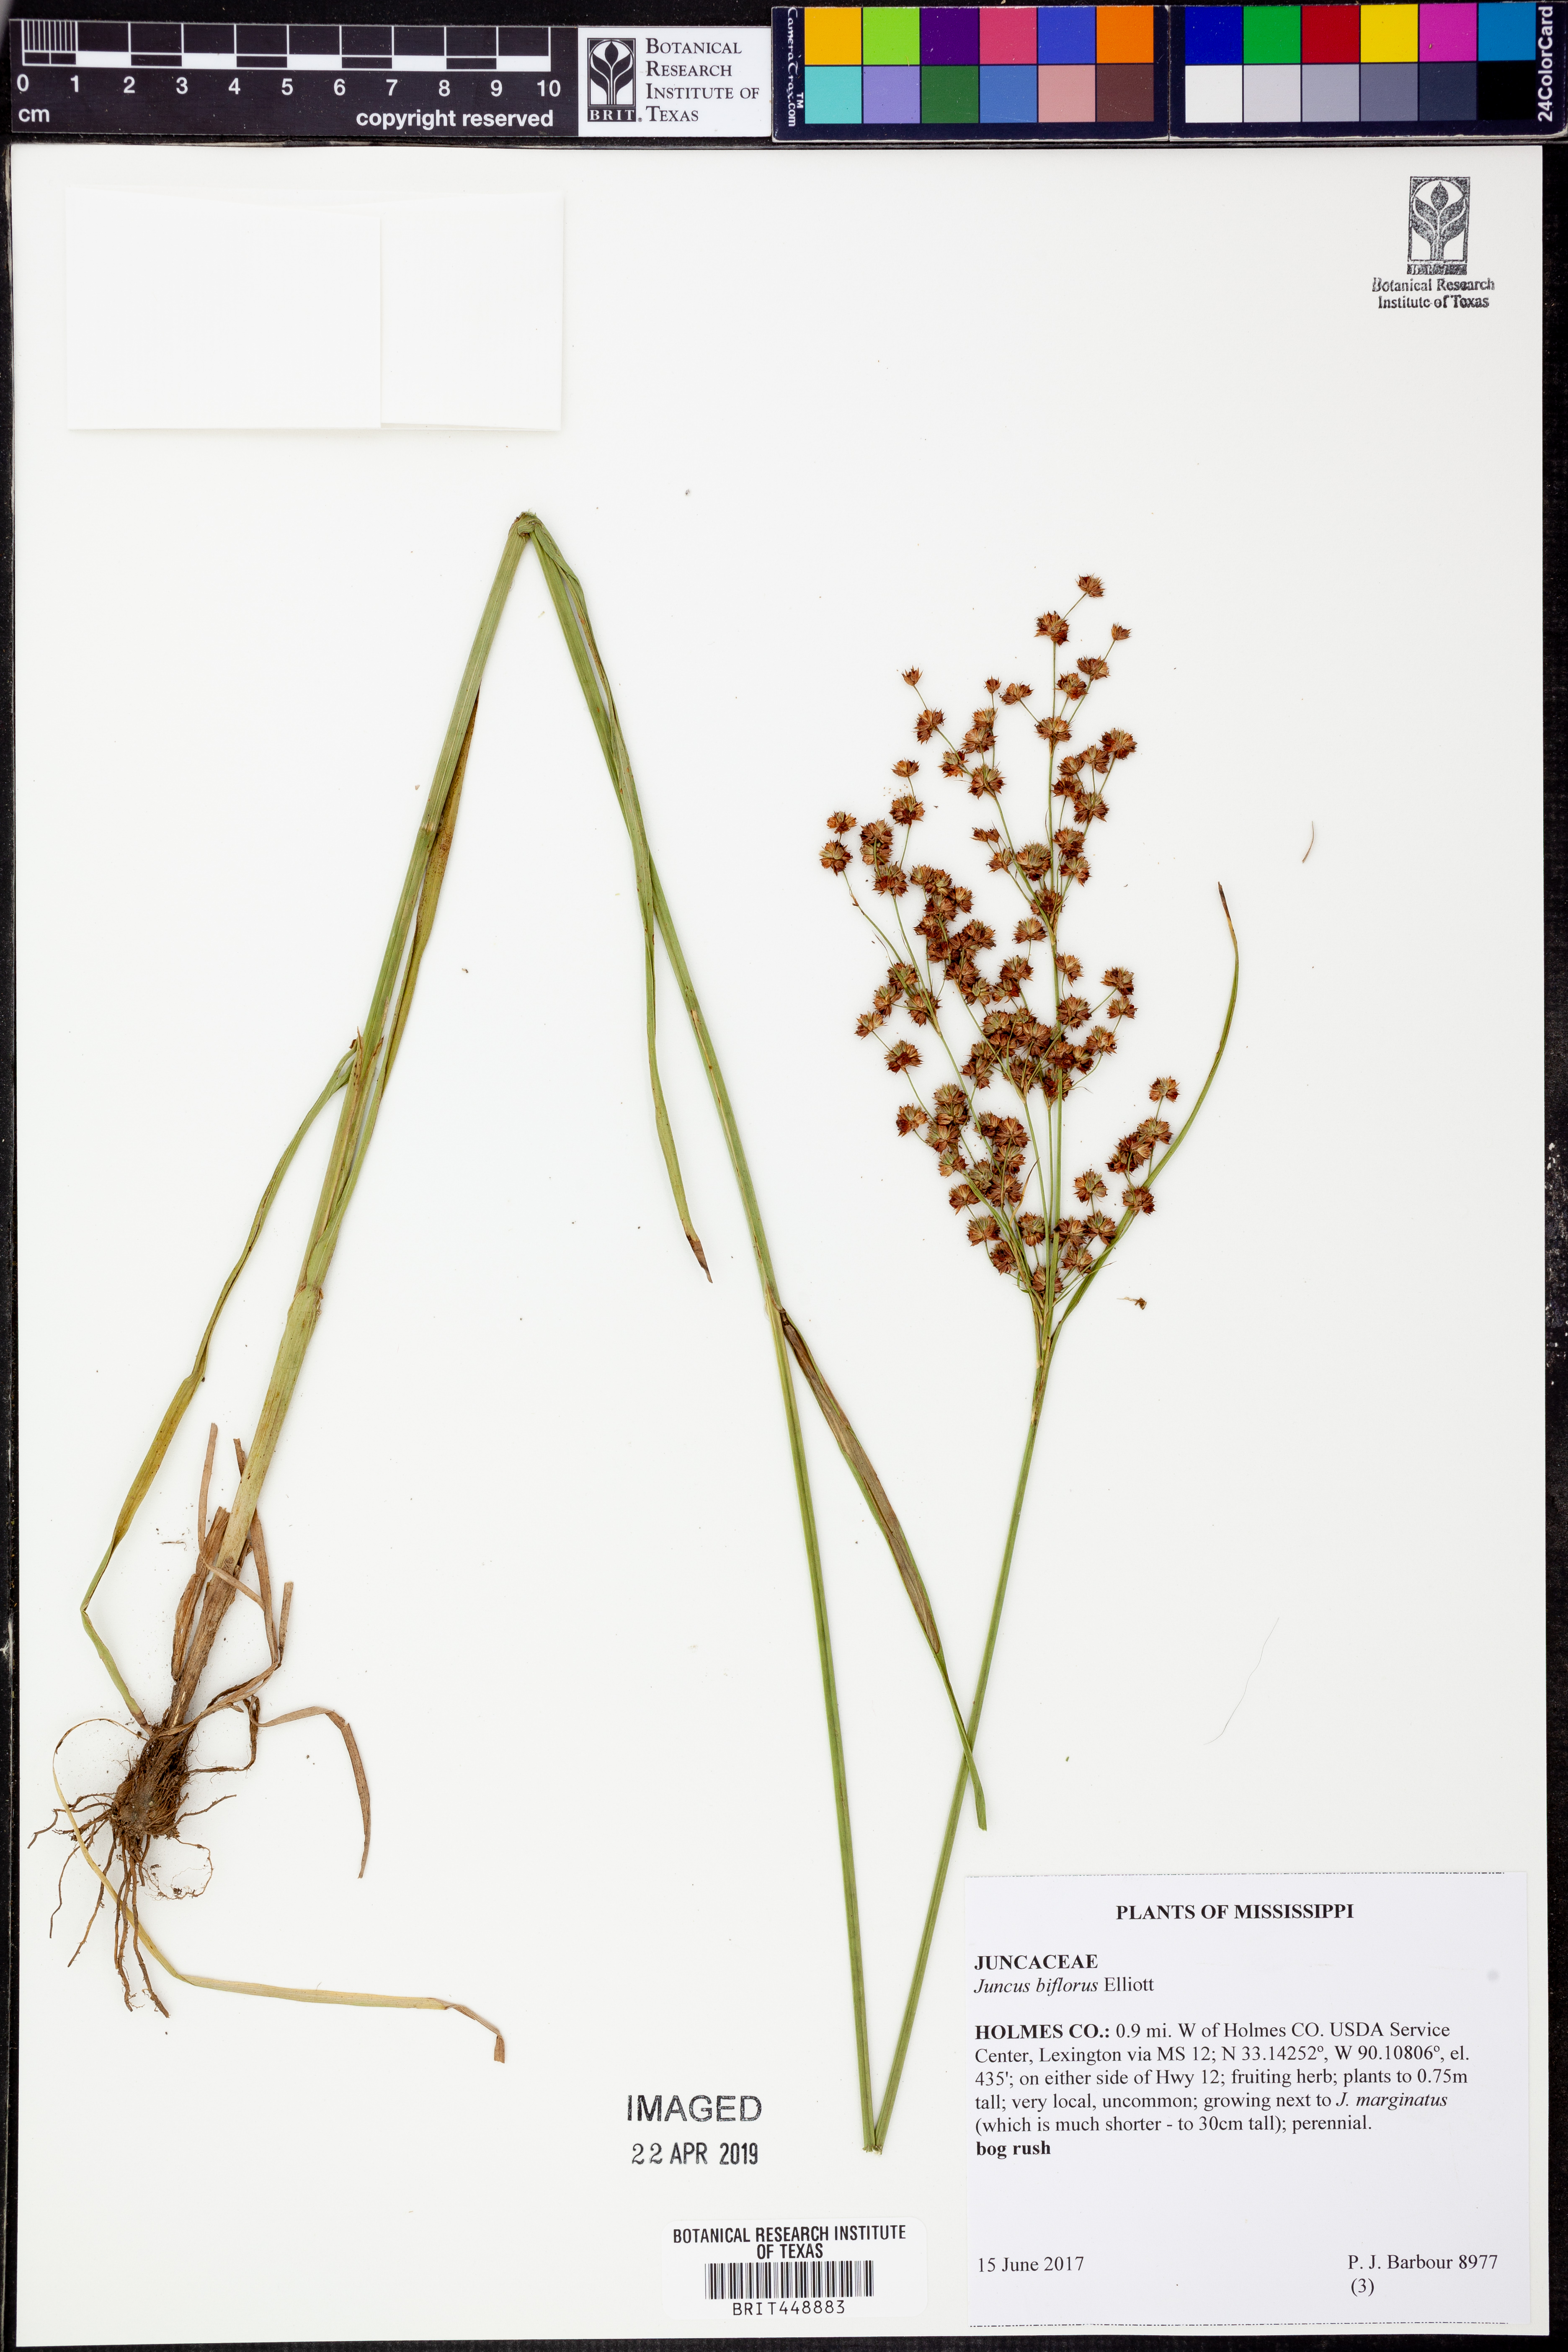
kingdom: Plantae
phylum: Tracheophyta
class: Liliopsida
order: Poales
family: Juncaceae
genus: Juncus
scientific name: Juncus biflorus
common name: Two-flowered rush
